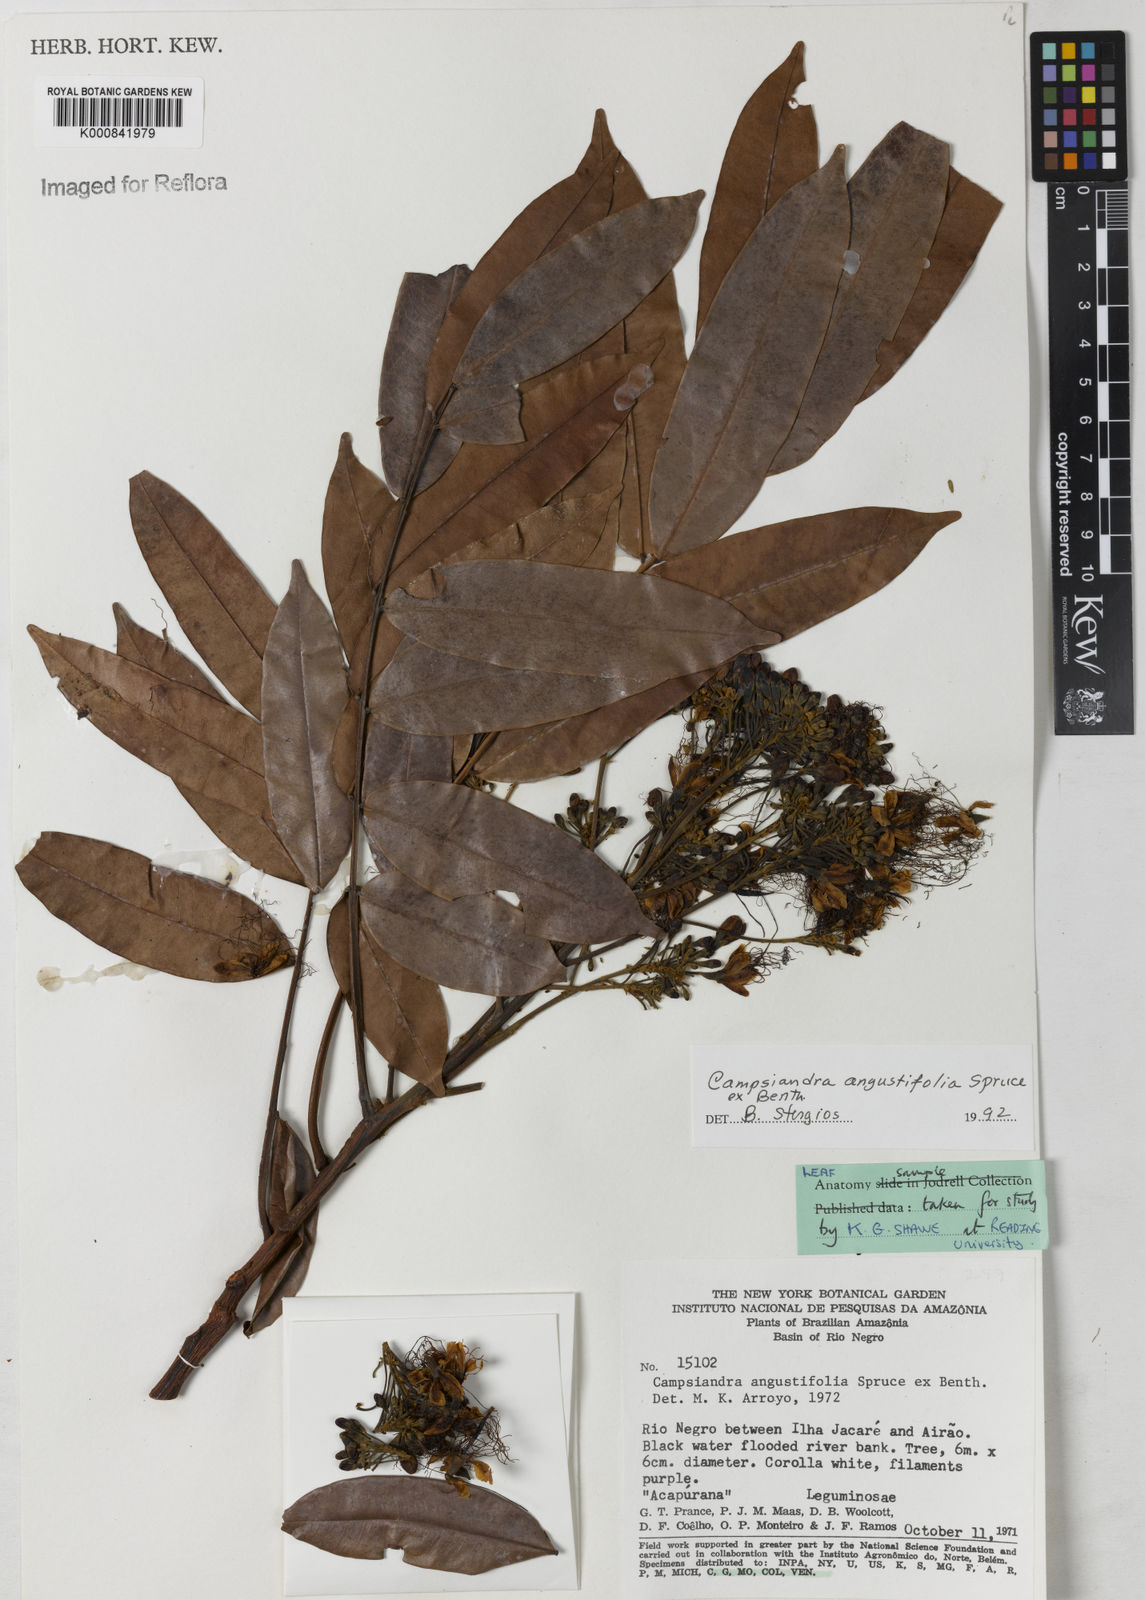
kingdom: Plantae
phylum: Tracheophyta
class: Magnoliopsida
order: Fabales
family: Fabaceae
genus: Campsiandra
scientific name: Campsiandra
